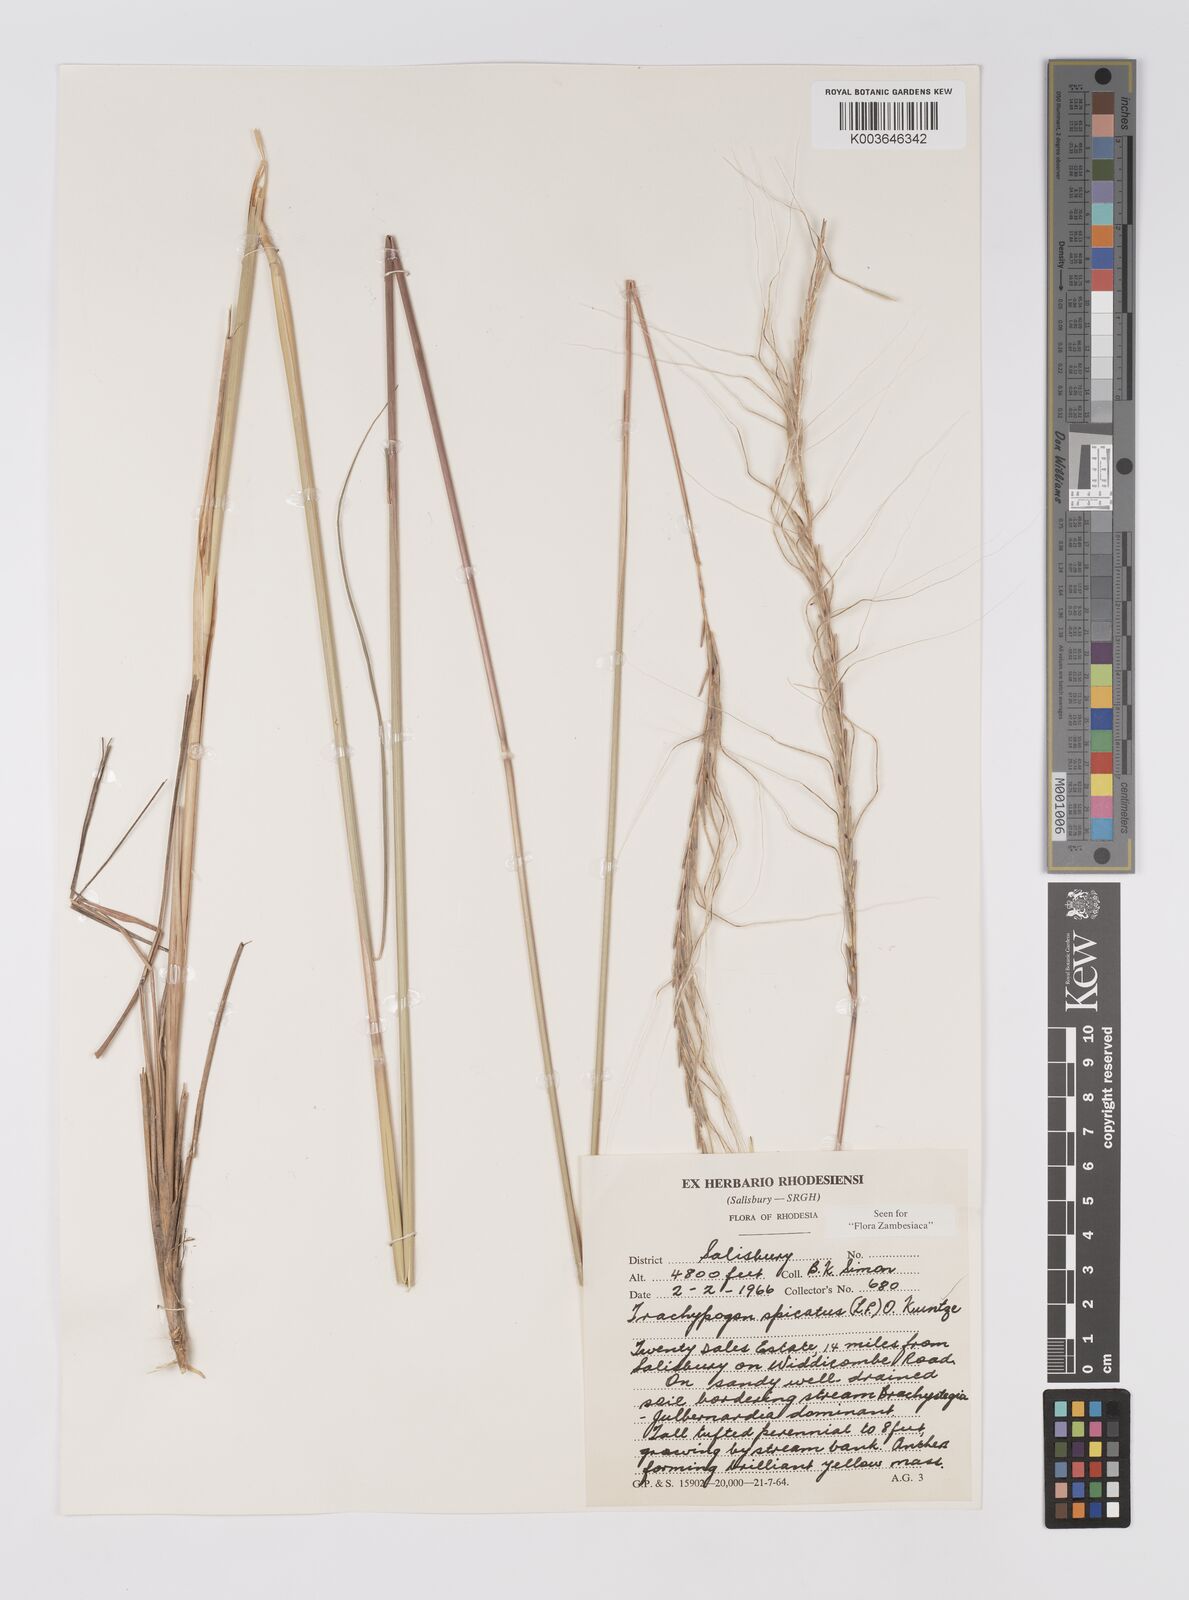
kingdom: Plantae
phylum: Tracheophyta
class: Liliopsida
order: Poales
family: Poaceae
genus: Trachypogon
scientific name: Trachypogon spicatus
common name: Crinkle-awn
